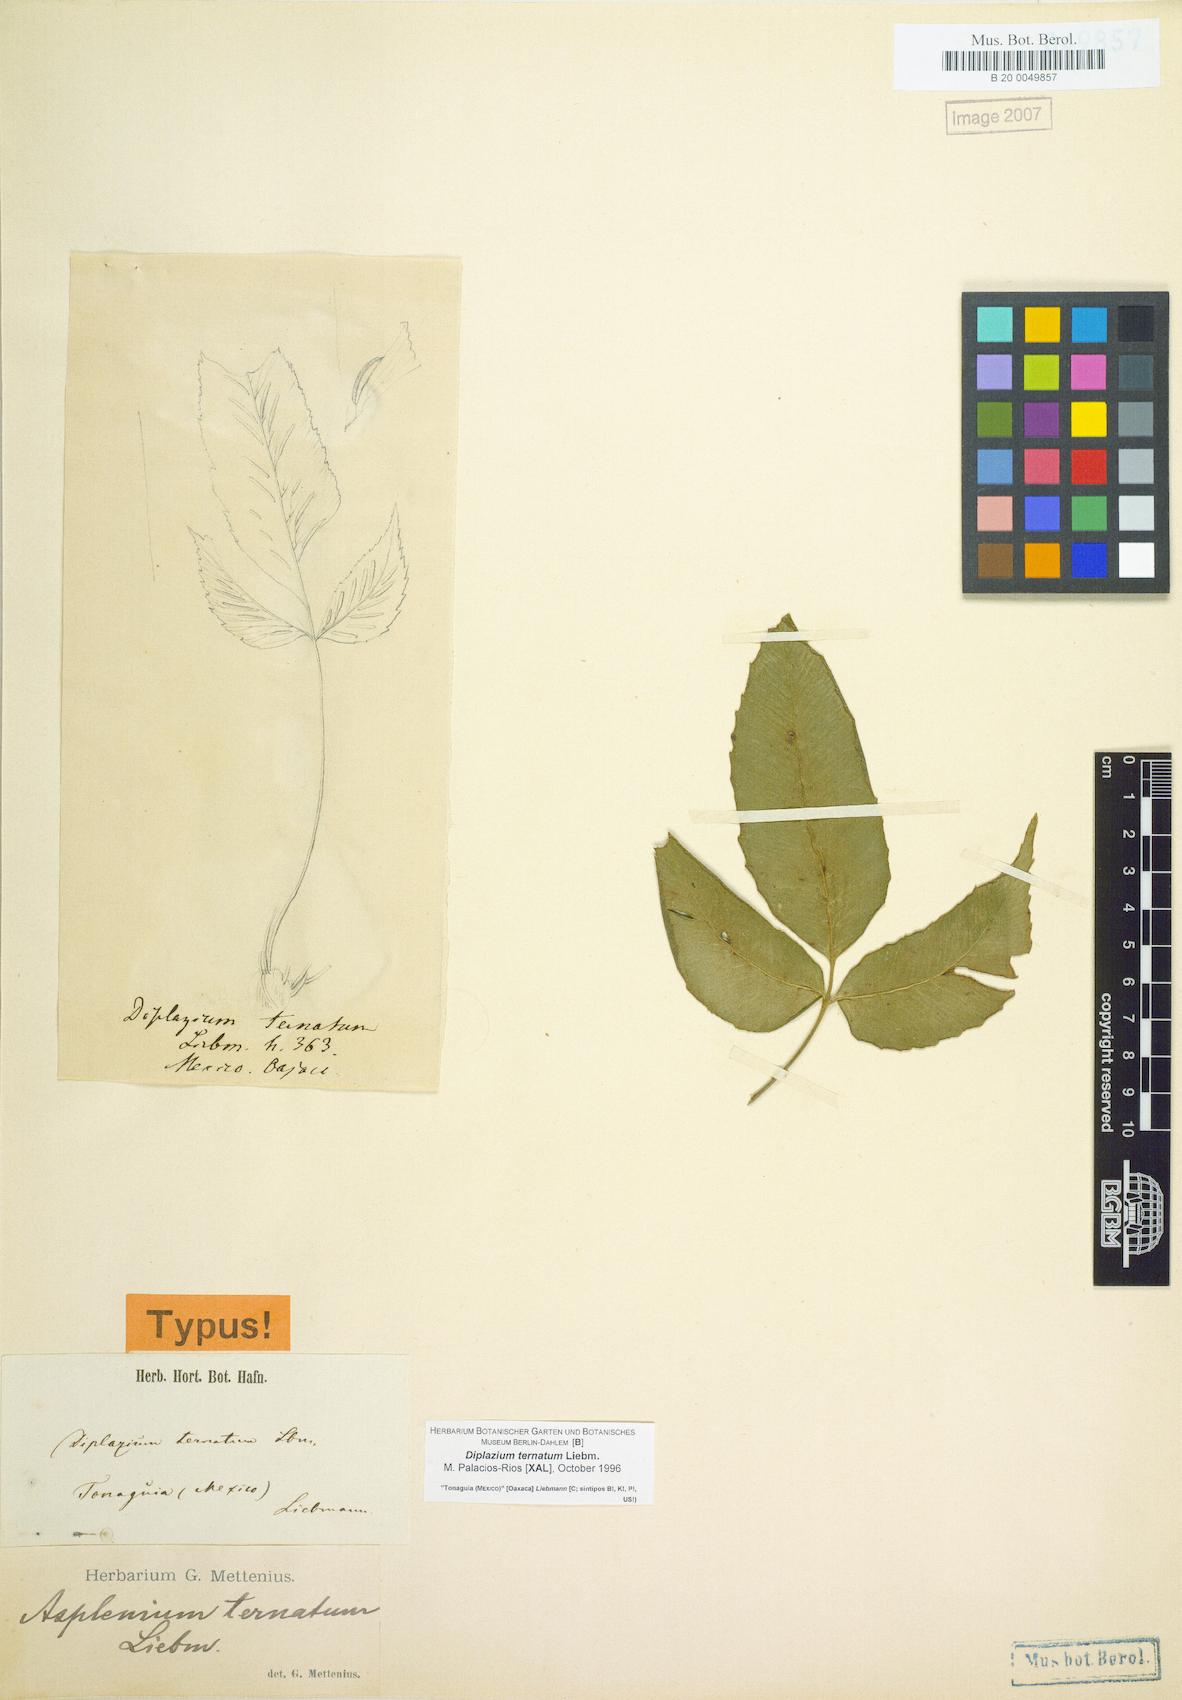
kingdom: Plantae
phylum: Tracheophyta
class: Polypodiopsida
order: Polypodiales
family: Athyriaceae
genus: Diplazium
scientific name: Diplazium ternatum
